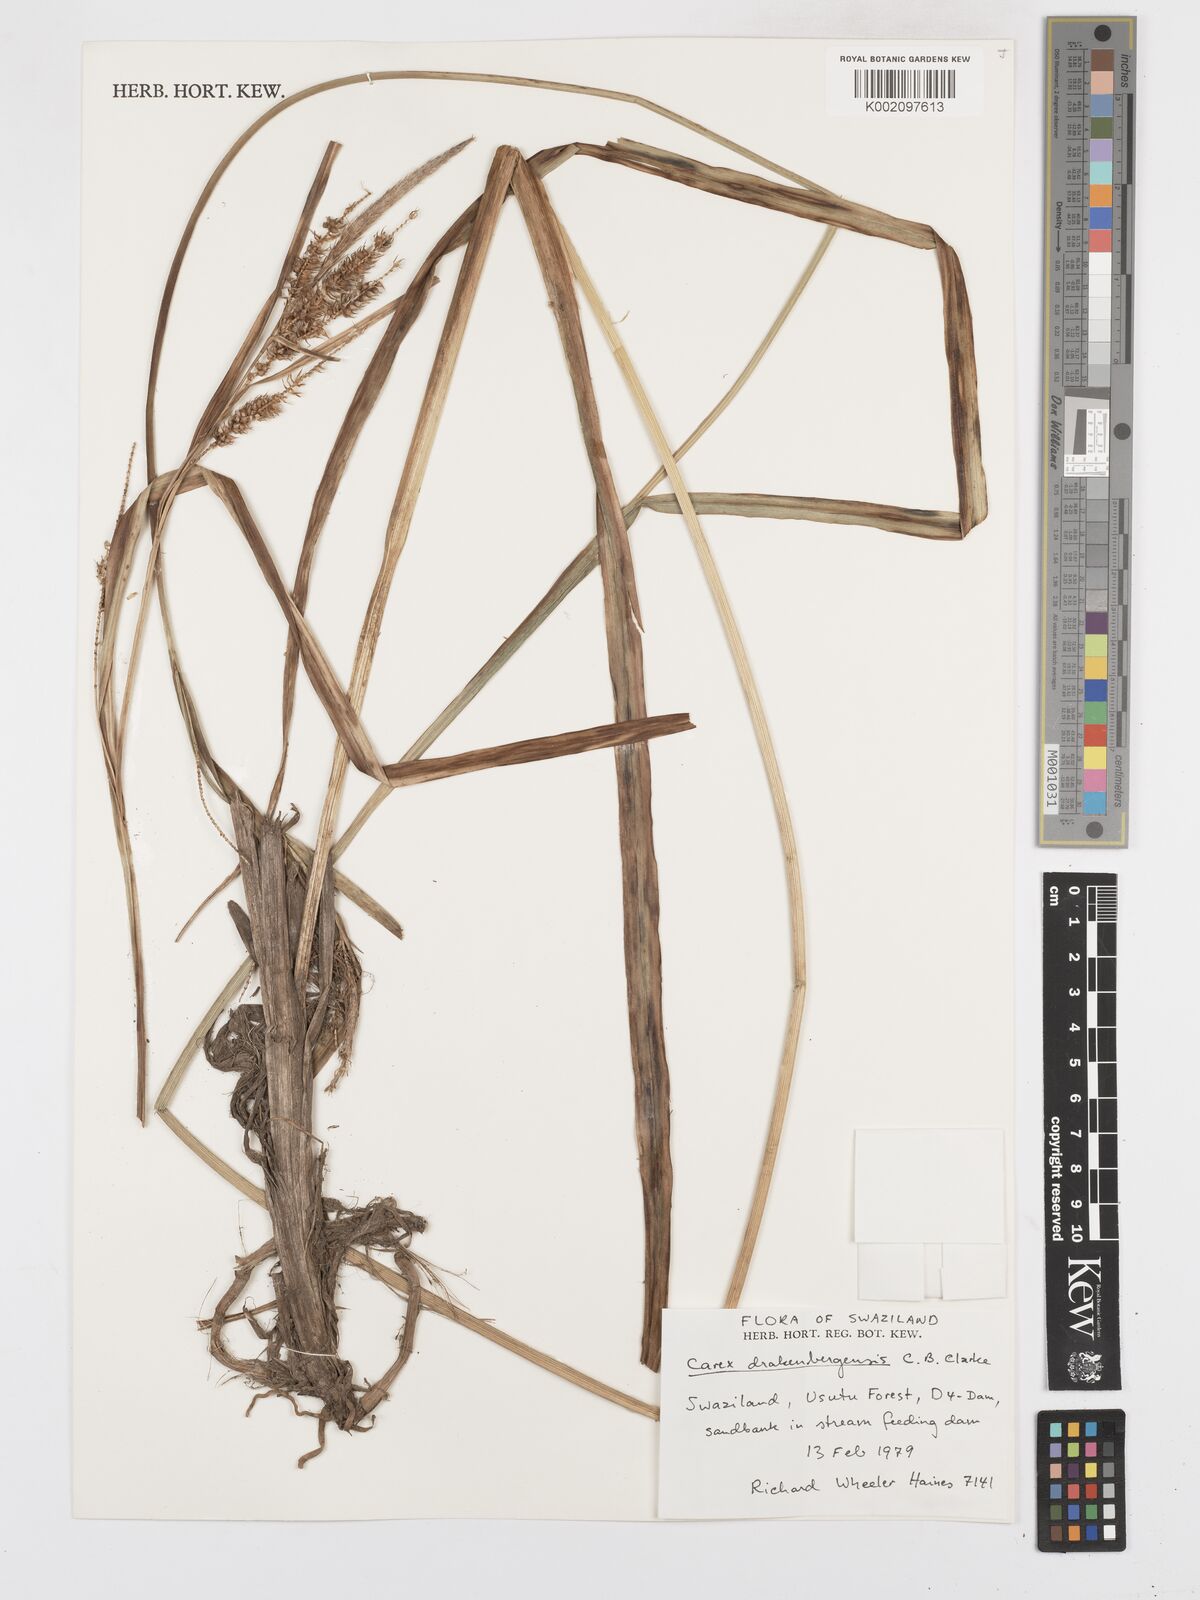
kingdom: Plantae
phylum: Tracheophyta
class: Liliopsida
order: Poales
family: Cyperaceae
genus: Carex
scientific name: Carex cognata
